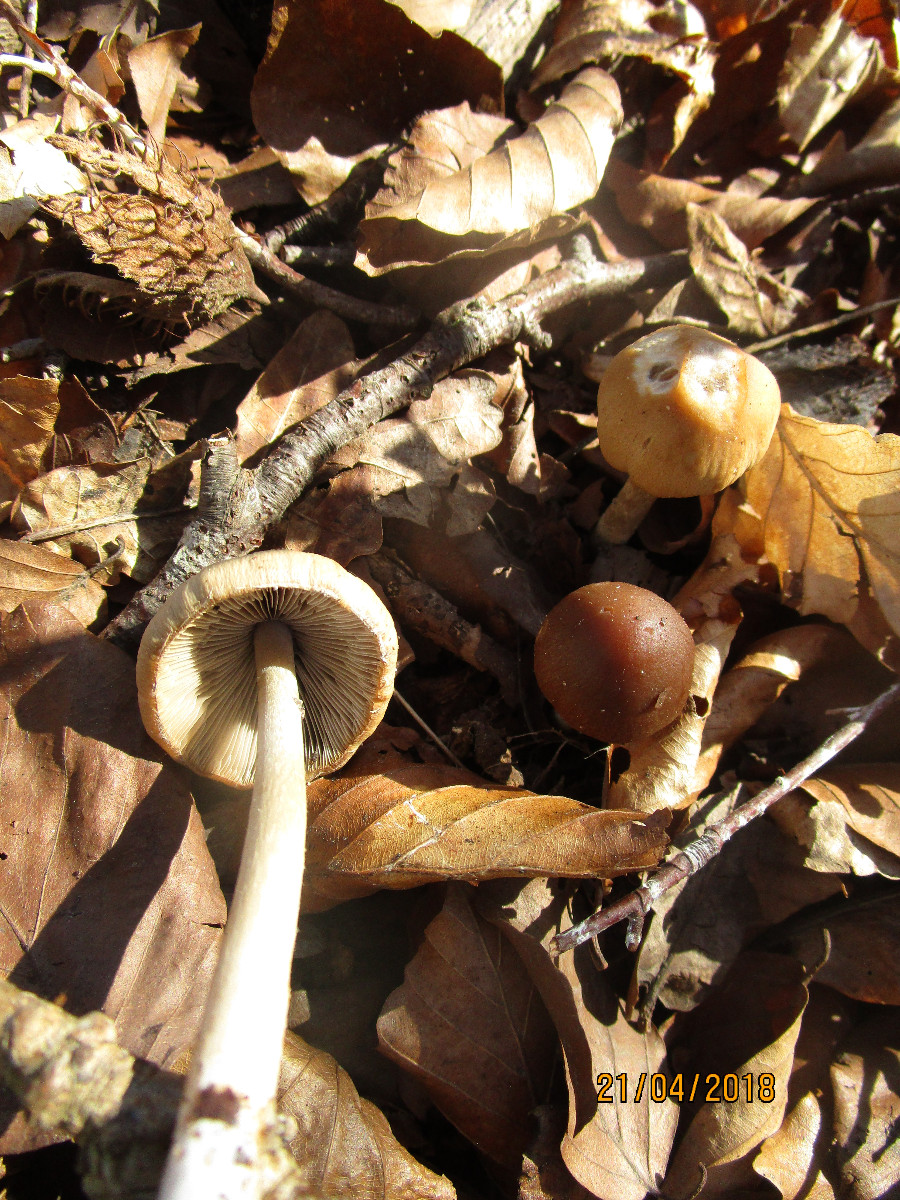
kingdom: Fungi
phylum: Basidiomycota
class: Agaricomycetes
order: Agaricales
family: Psathyrellaceae
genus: Psathyrella
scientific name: Psathyrella spadiceogrisea
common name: gråbrun mørkhat
